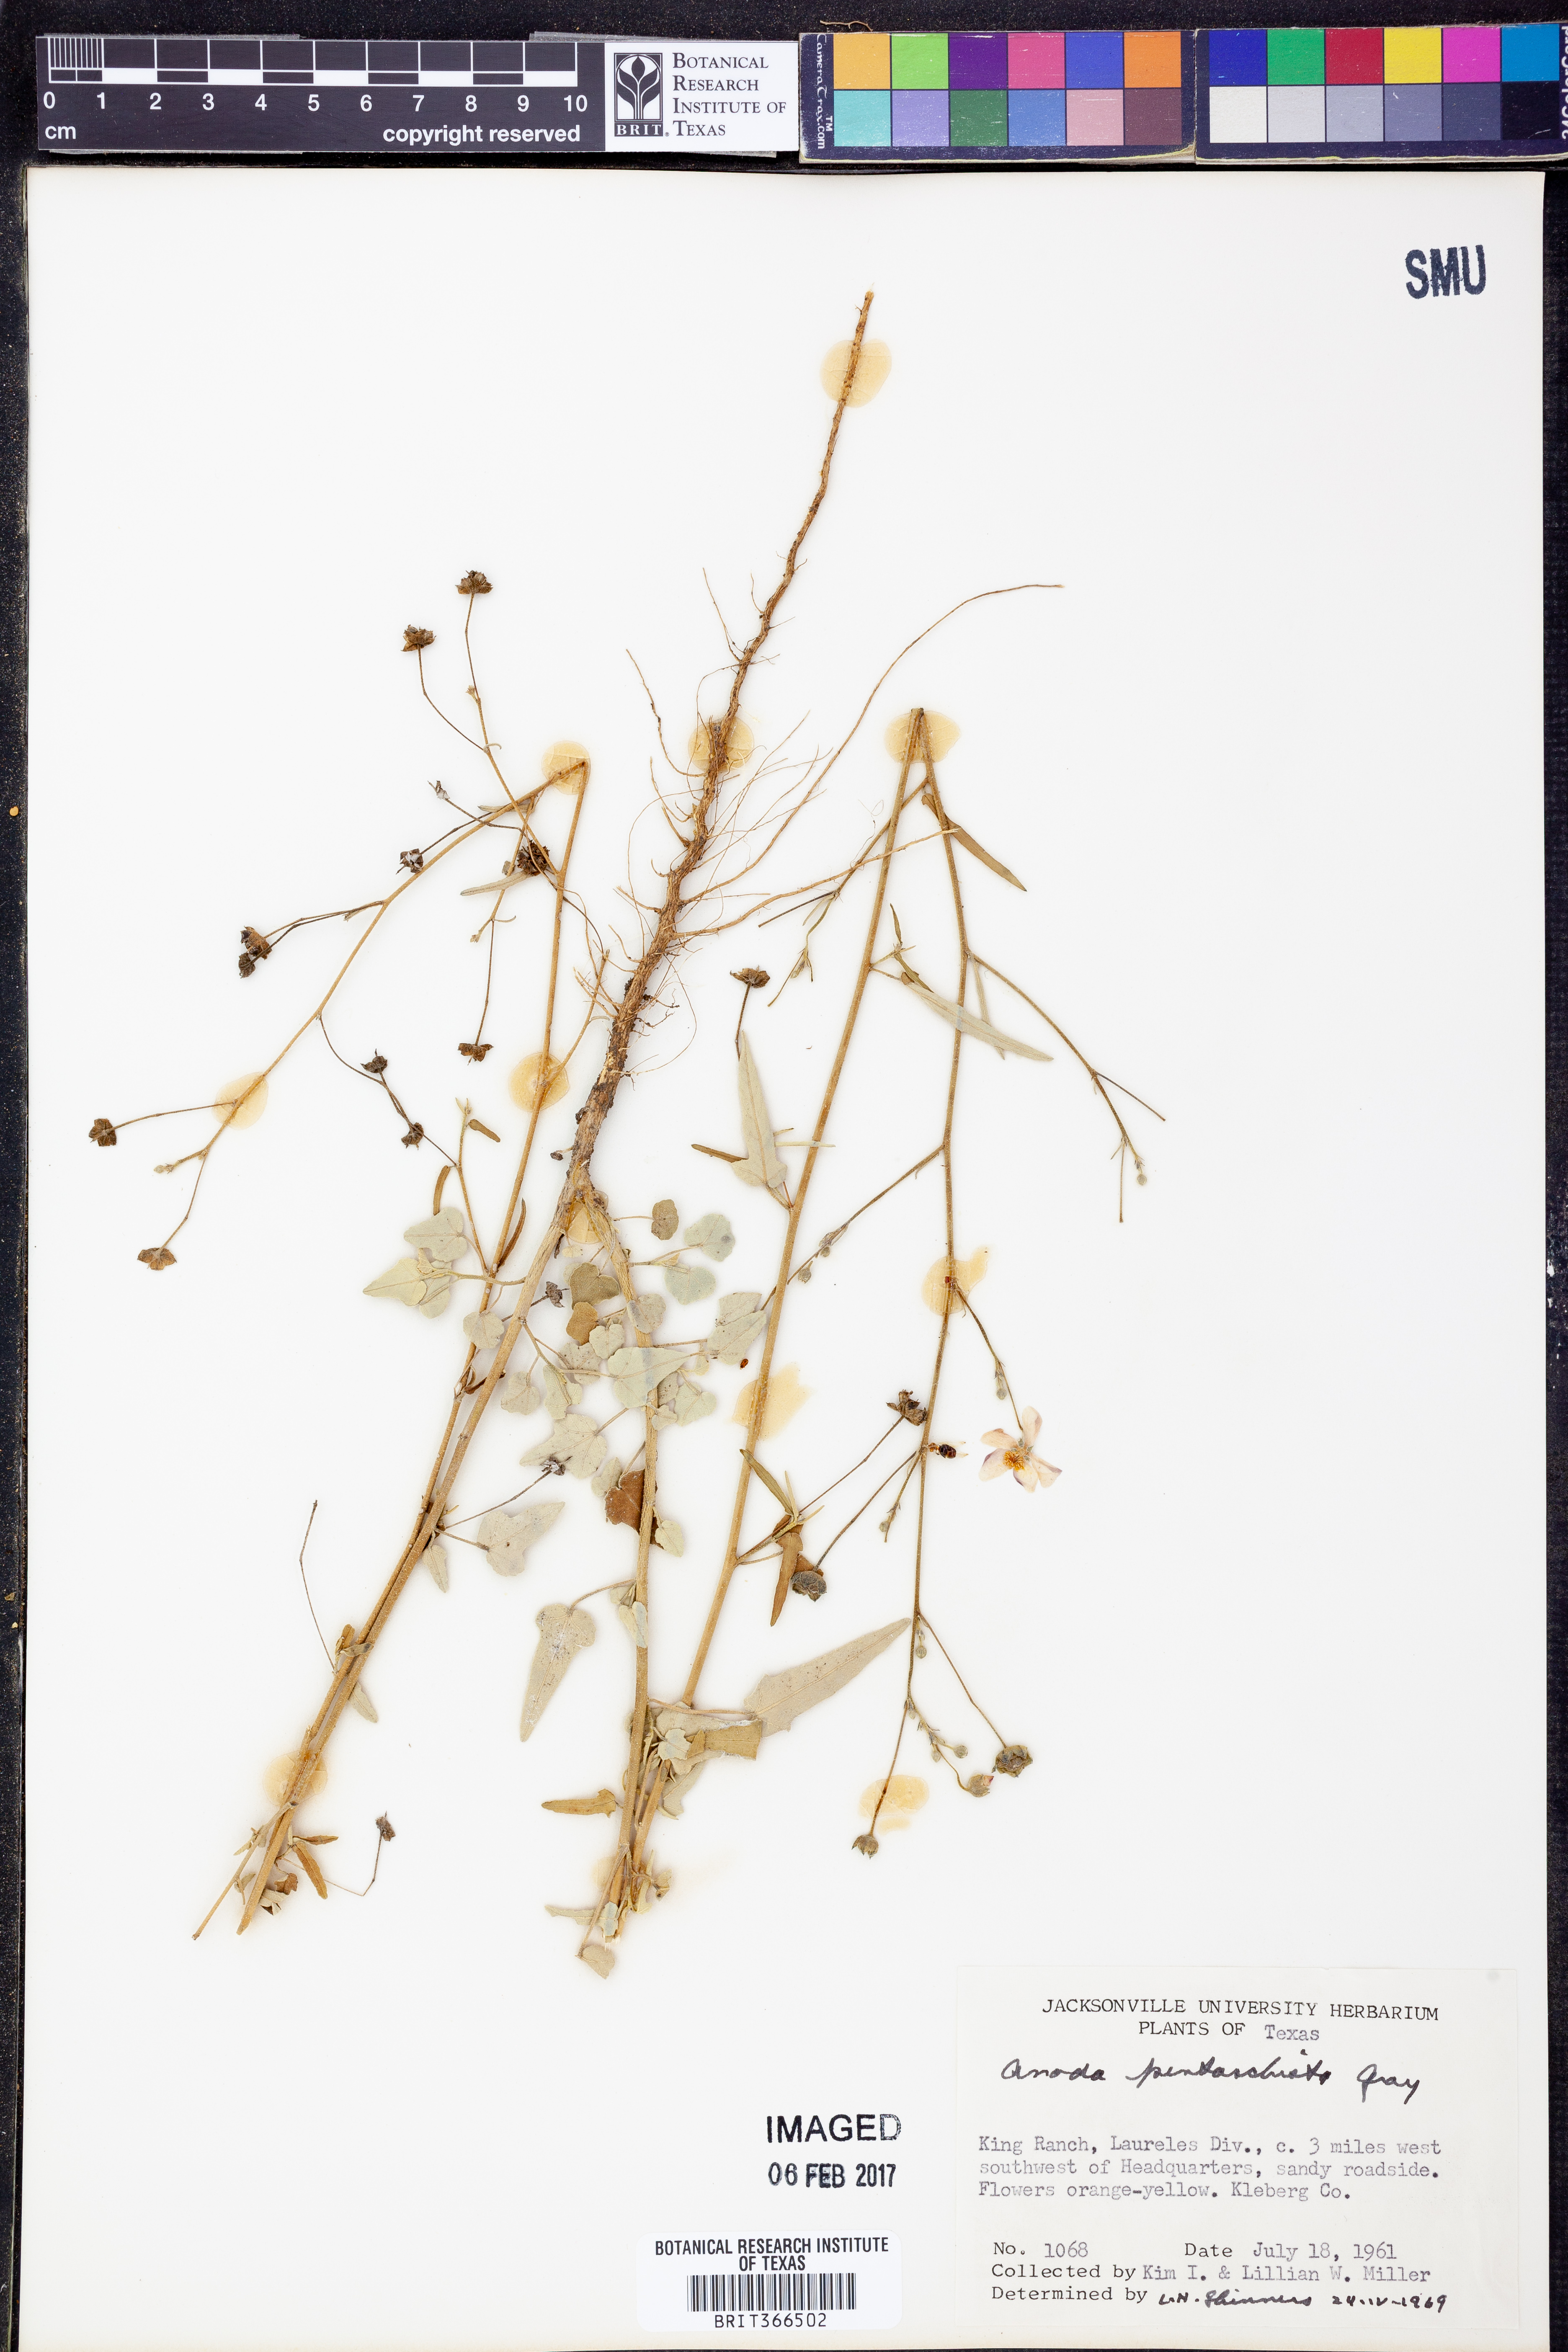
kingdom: Plantae
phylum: Tracheophyta
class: Magnoliopsida
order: Malvales
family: Malvaceae
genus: Anoda
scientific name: Anoda pentaschista
